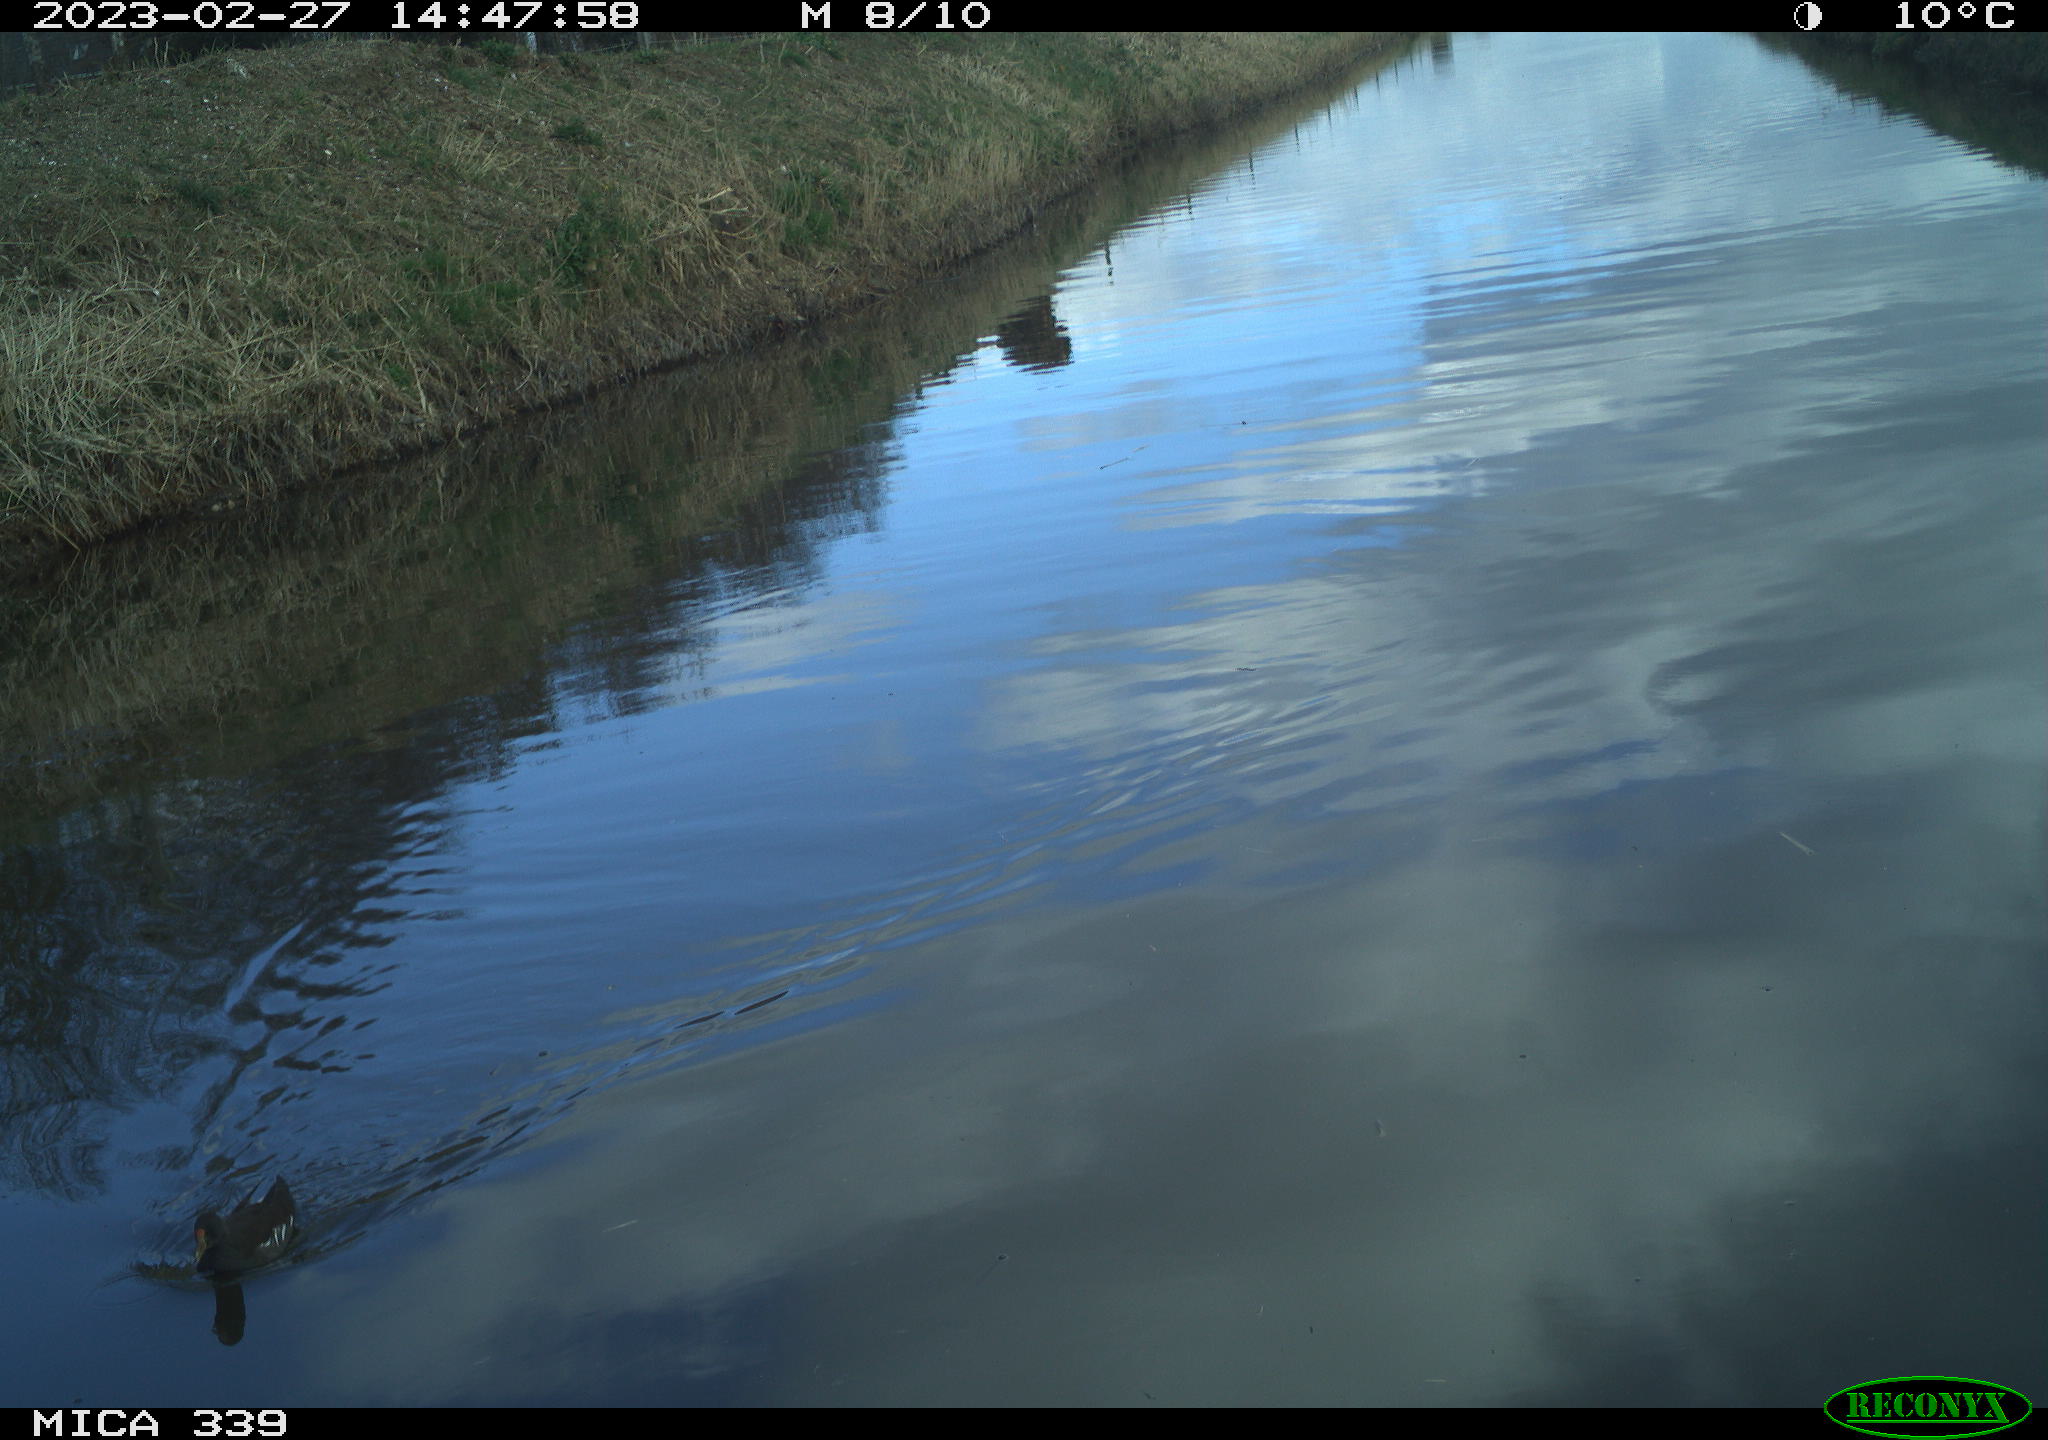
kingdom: Animalia
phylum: Chordata
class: Aves
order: Gruiformes
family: Rallidae
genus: Gallinula
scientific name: Gallinula chloropus
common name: Common moorhen
